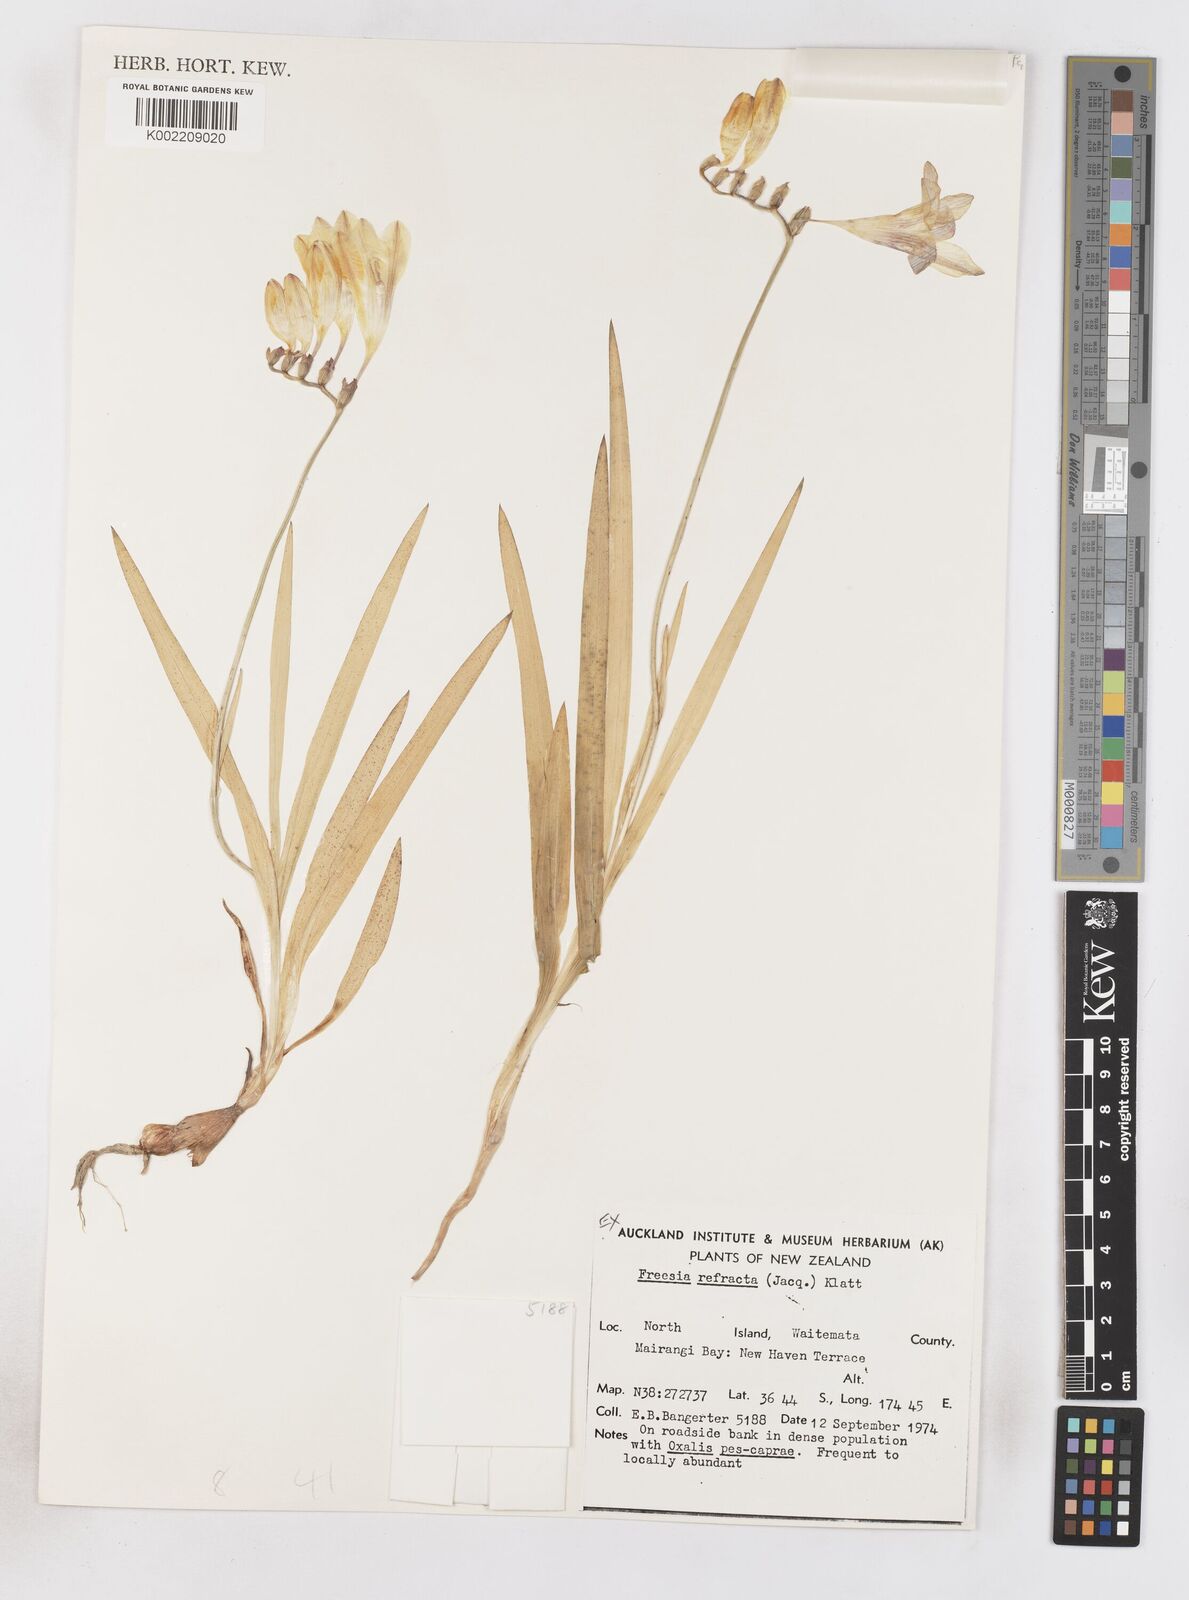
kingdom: Plantae
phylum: Tracheophyta
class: Liliopsida
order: Asparagales
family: Iridaceae
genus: Freesia
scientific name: Freesia refracta
